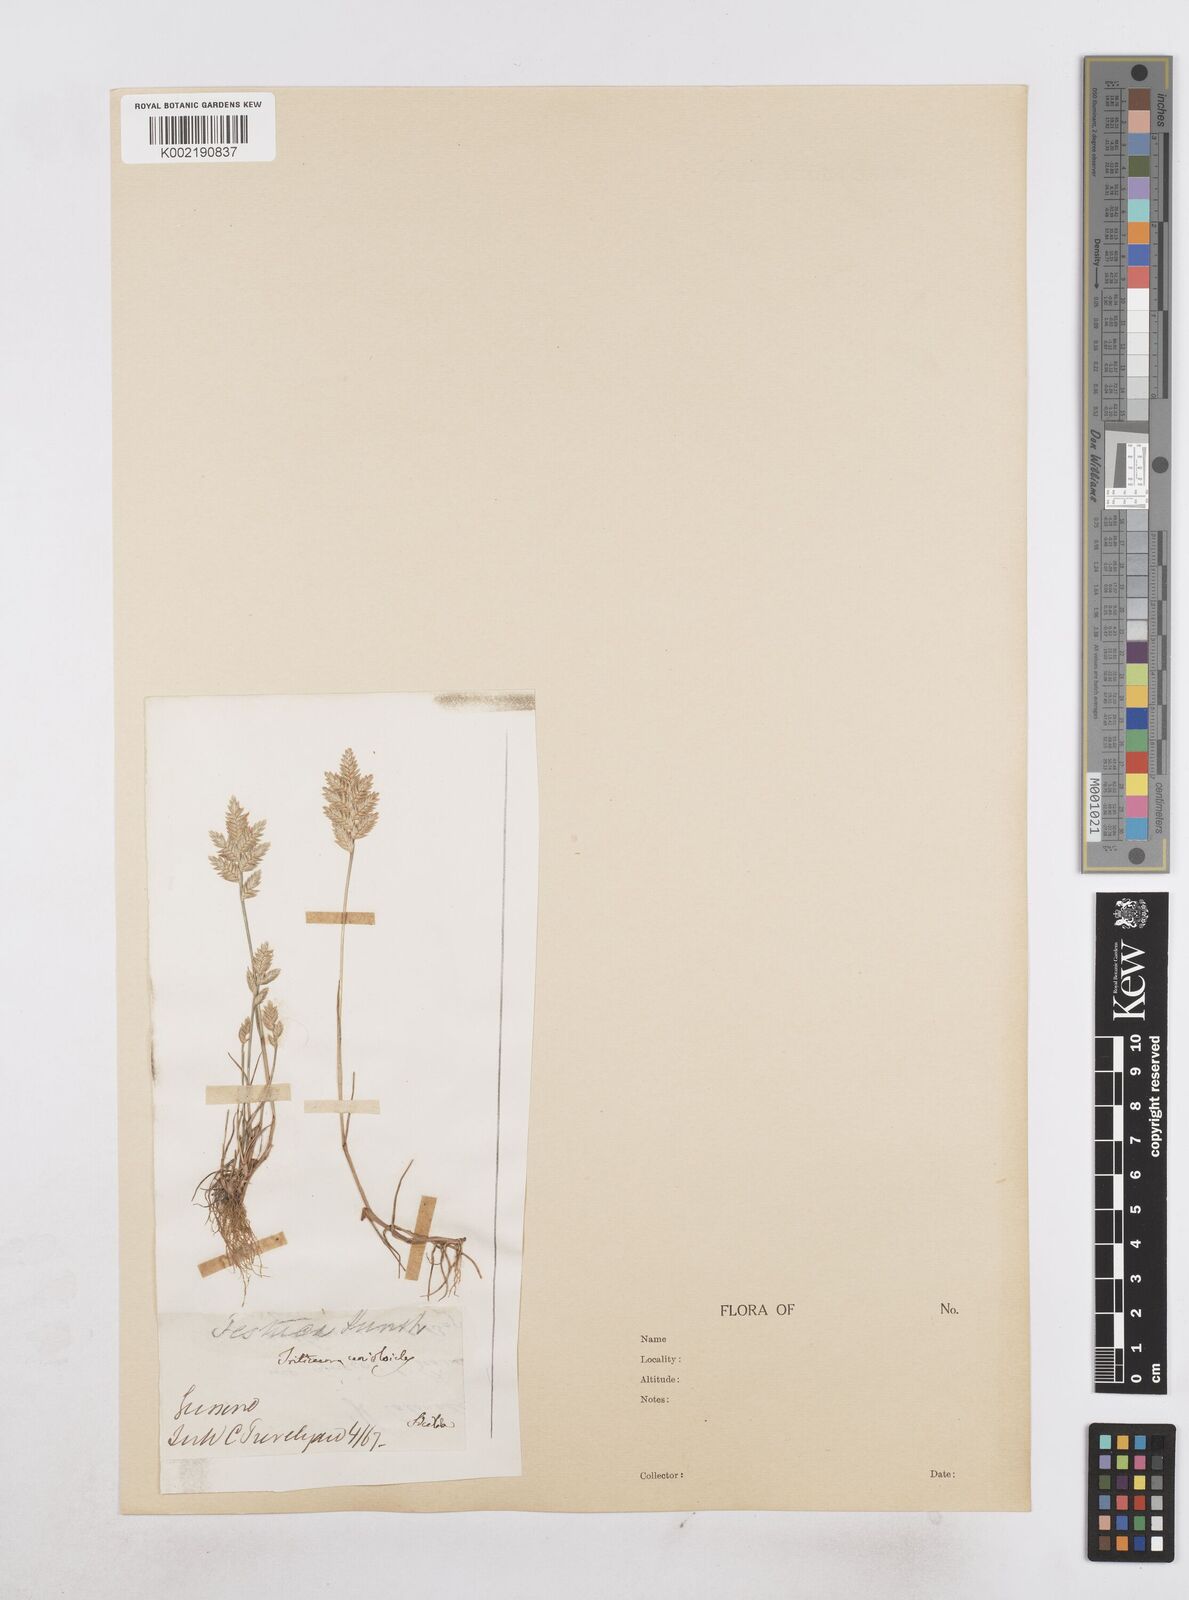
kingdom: Plantae
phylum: Tracheophyta
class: Liliopsida
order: Poales
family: Poaceae
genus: Desmazeria
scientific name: Desmazeria sicula
